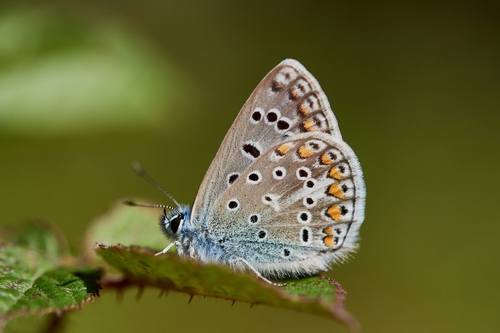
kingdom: Animalia
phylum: Arthropoda
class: Insecta
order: Lepidoptera
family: Lycaenidae
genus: Polyommatus
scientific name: Polyommatus icarus
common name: Common blue
